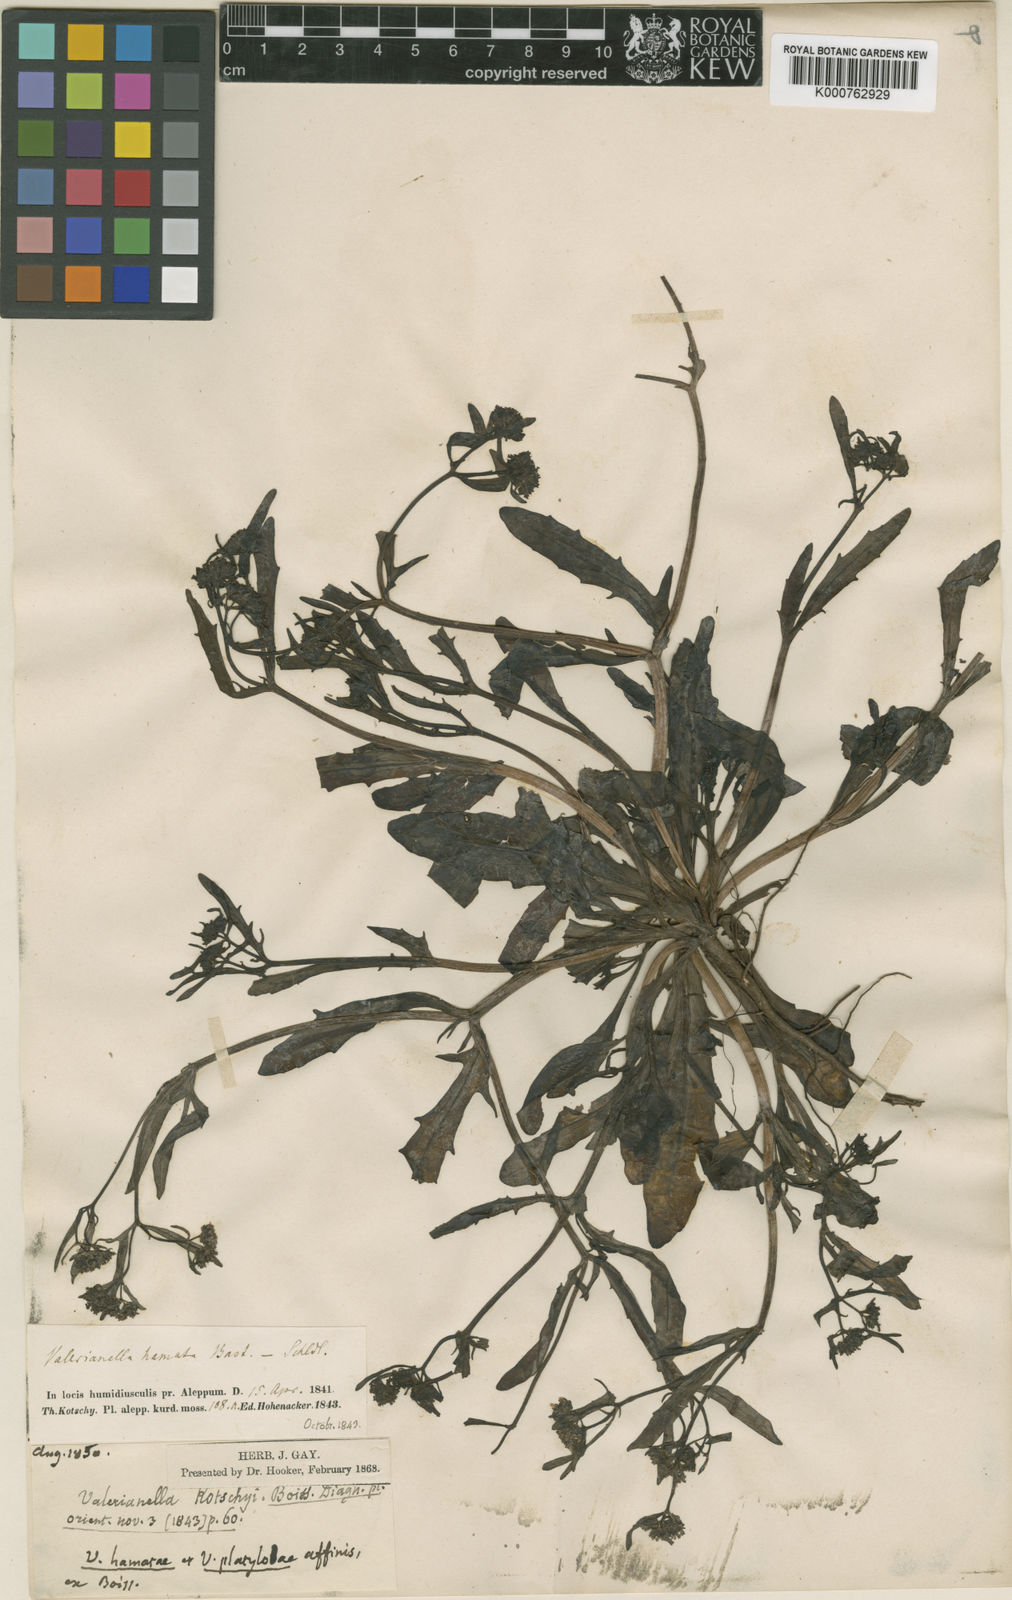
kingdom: Plantae
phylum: Tracheophyta
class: Magnoliopsida
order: Dipsacales
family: Caprifoliaceae
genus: Valerianella
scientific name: Valerianella kotschyi
